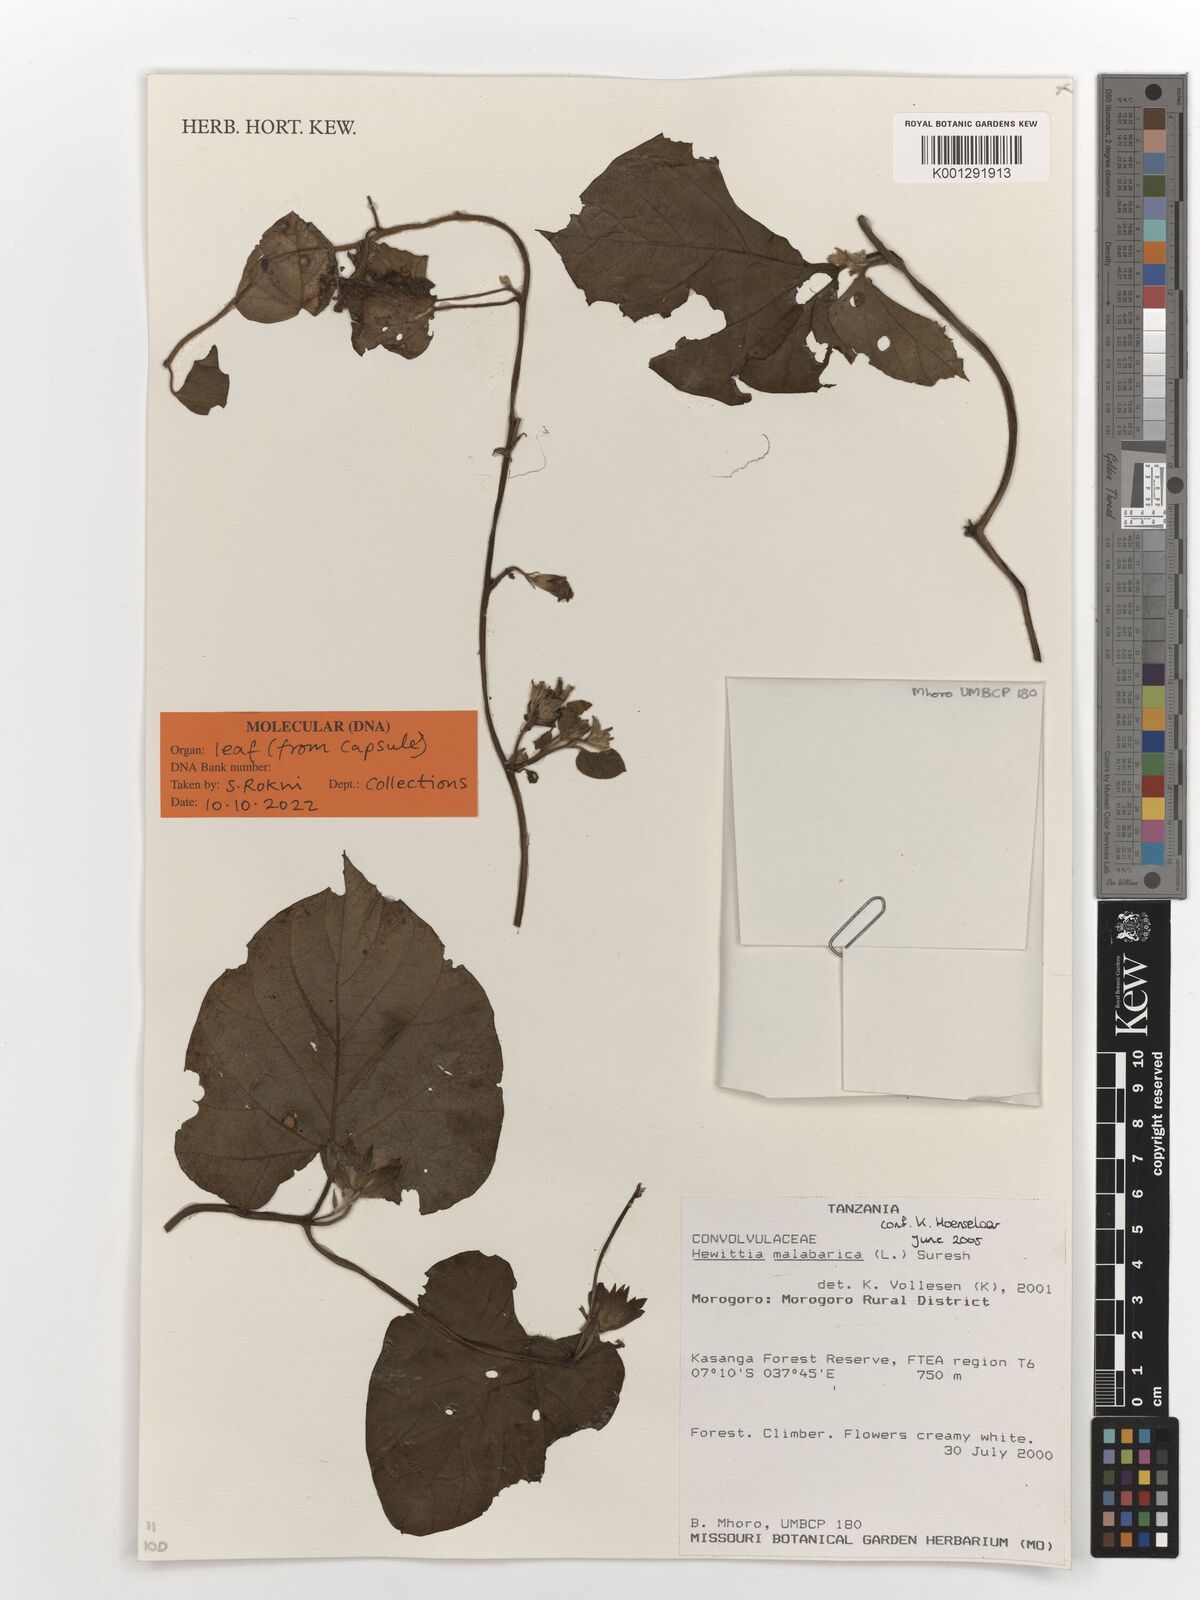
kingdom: Plantae
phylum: Tracheophyta
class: Magnoliopsida
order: Solanales
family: Convolvulaceae
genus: Hewittia
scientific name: Hewittia malabarica
